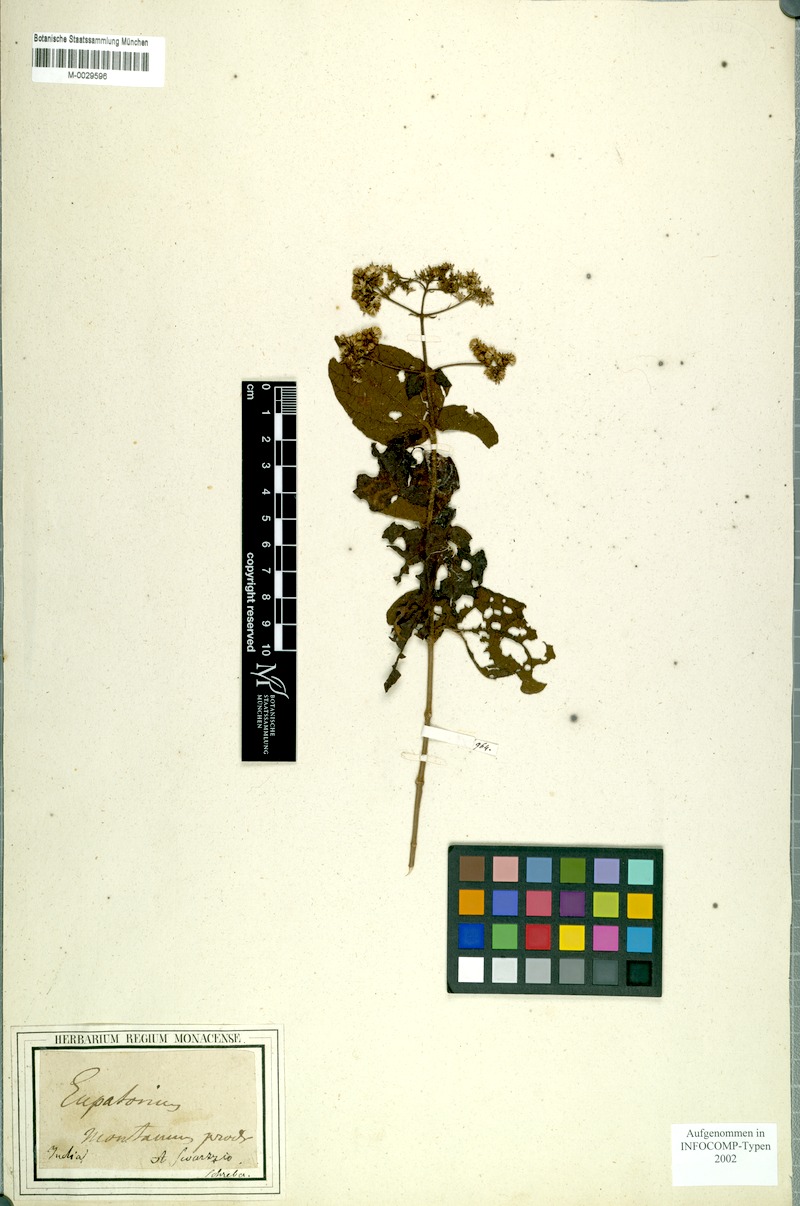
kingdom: Plantae
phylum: Tracheophyta
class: Magnoliopsida
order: Asterales
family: Asteraceae
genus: Koanophyllon
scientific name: Koanophyllon montanum
